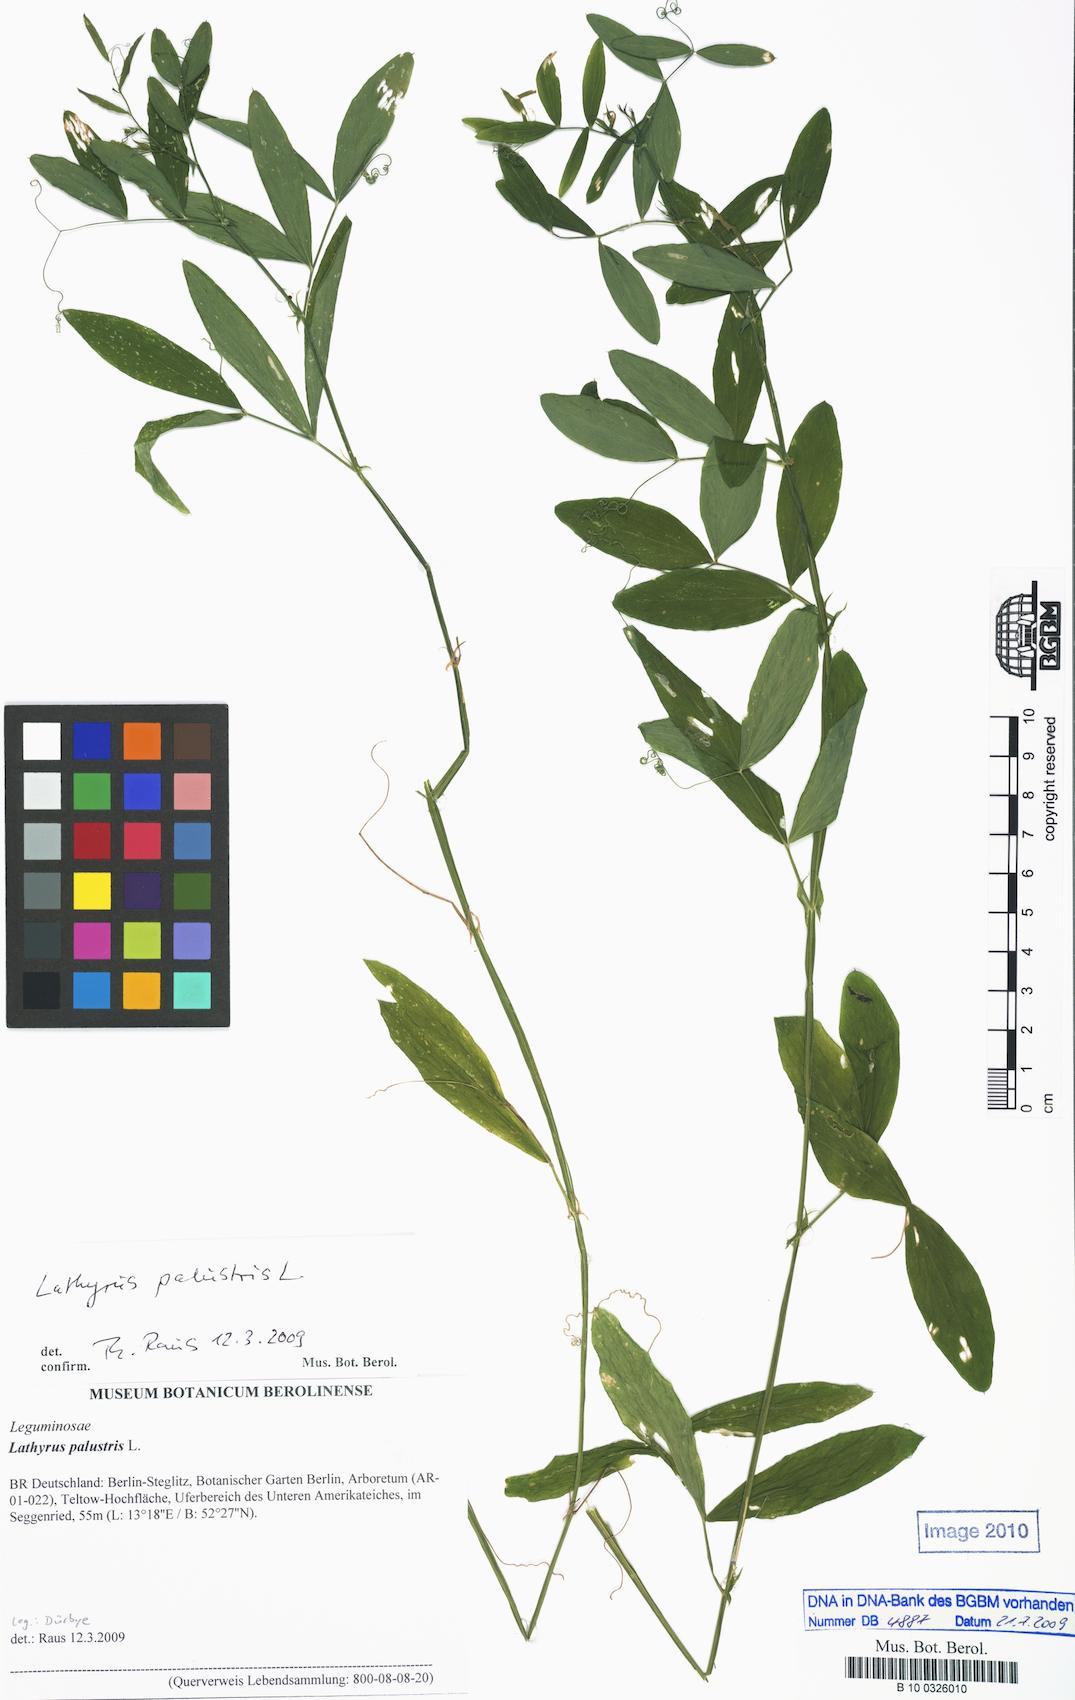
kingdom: Plantae
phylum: Tracheophyta
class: Magnoliopsida
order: Fabales
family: Fabaceae
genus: Lathyrus
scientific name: Lathyrus palustris
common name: Marsh pea
